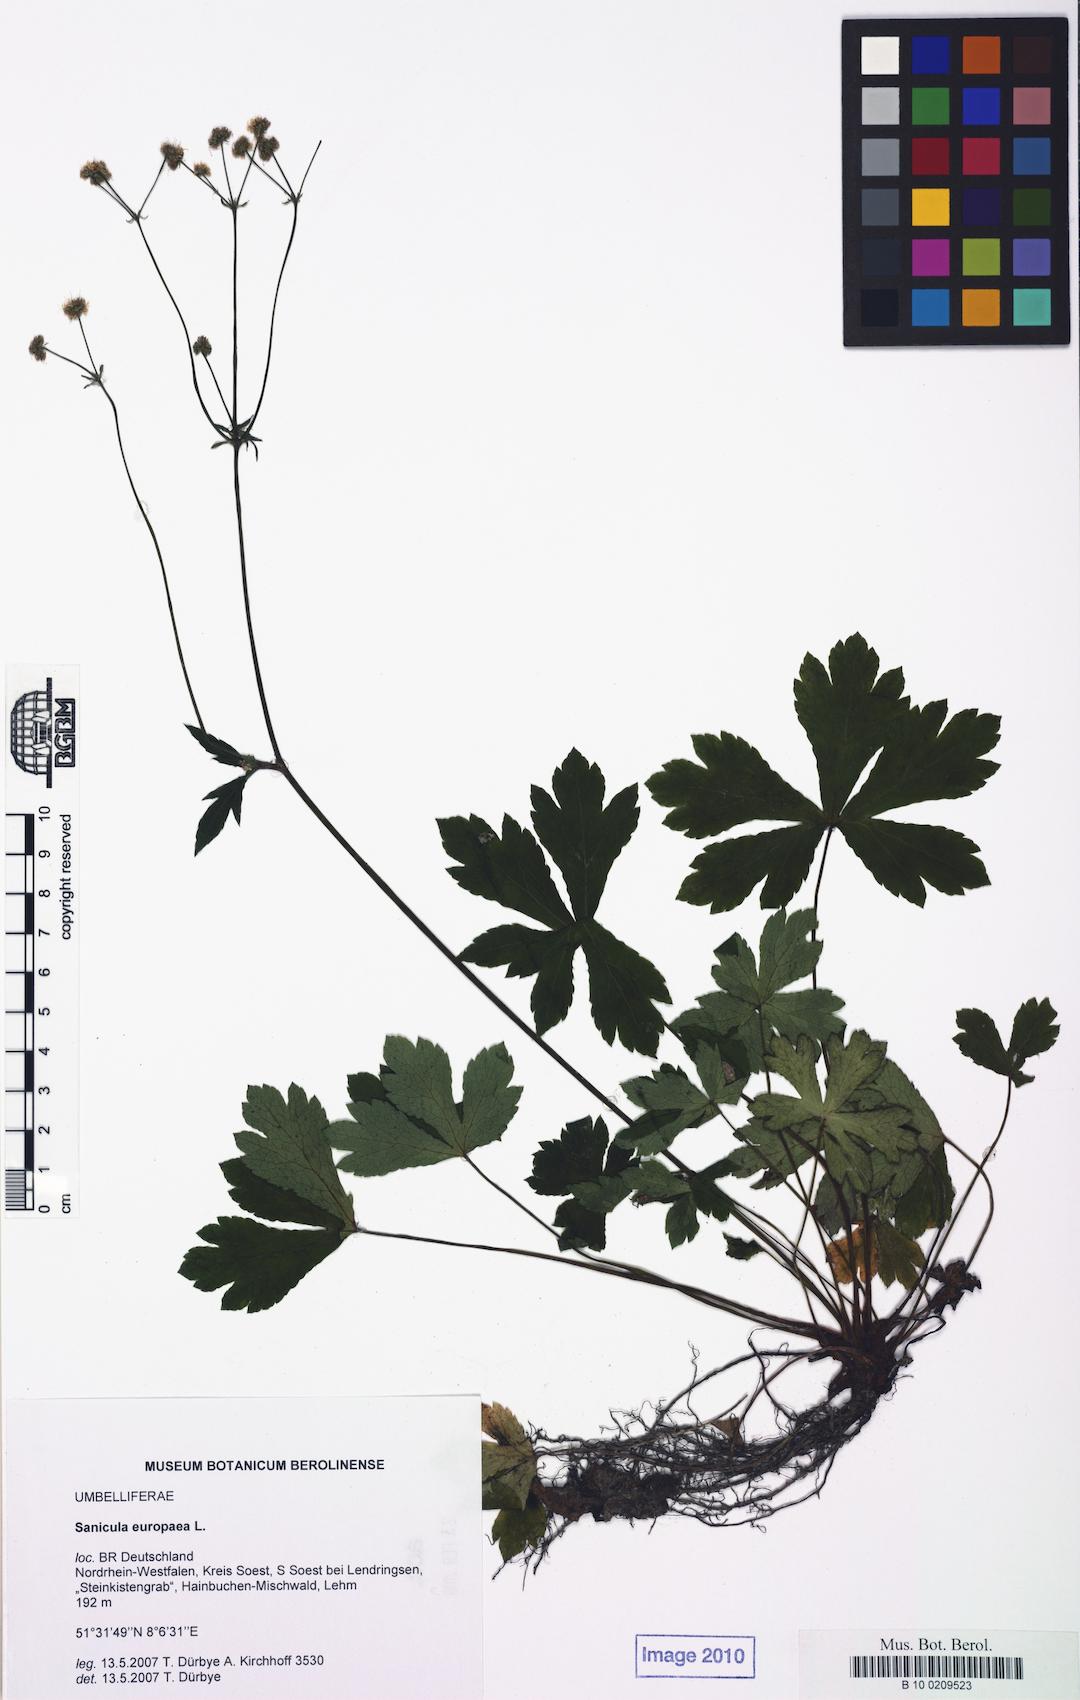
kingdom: Plantae
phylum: Tracheophyta
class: Magnoliopsida
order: Apiales
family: Apiaceae
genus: Sanicula
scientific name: Sanicula europaea
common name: Sanicle
